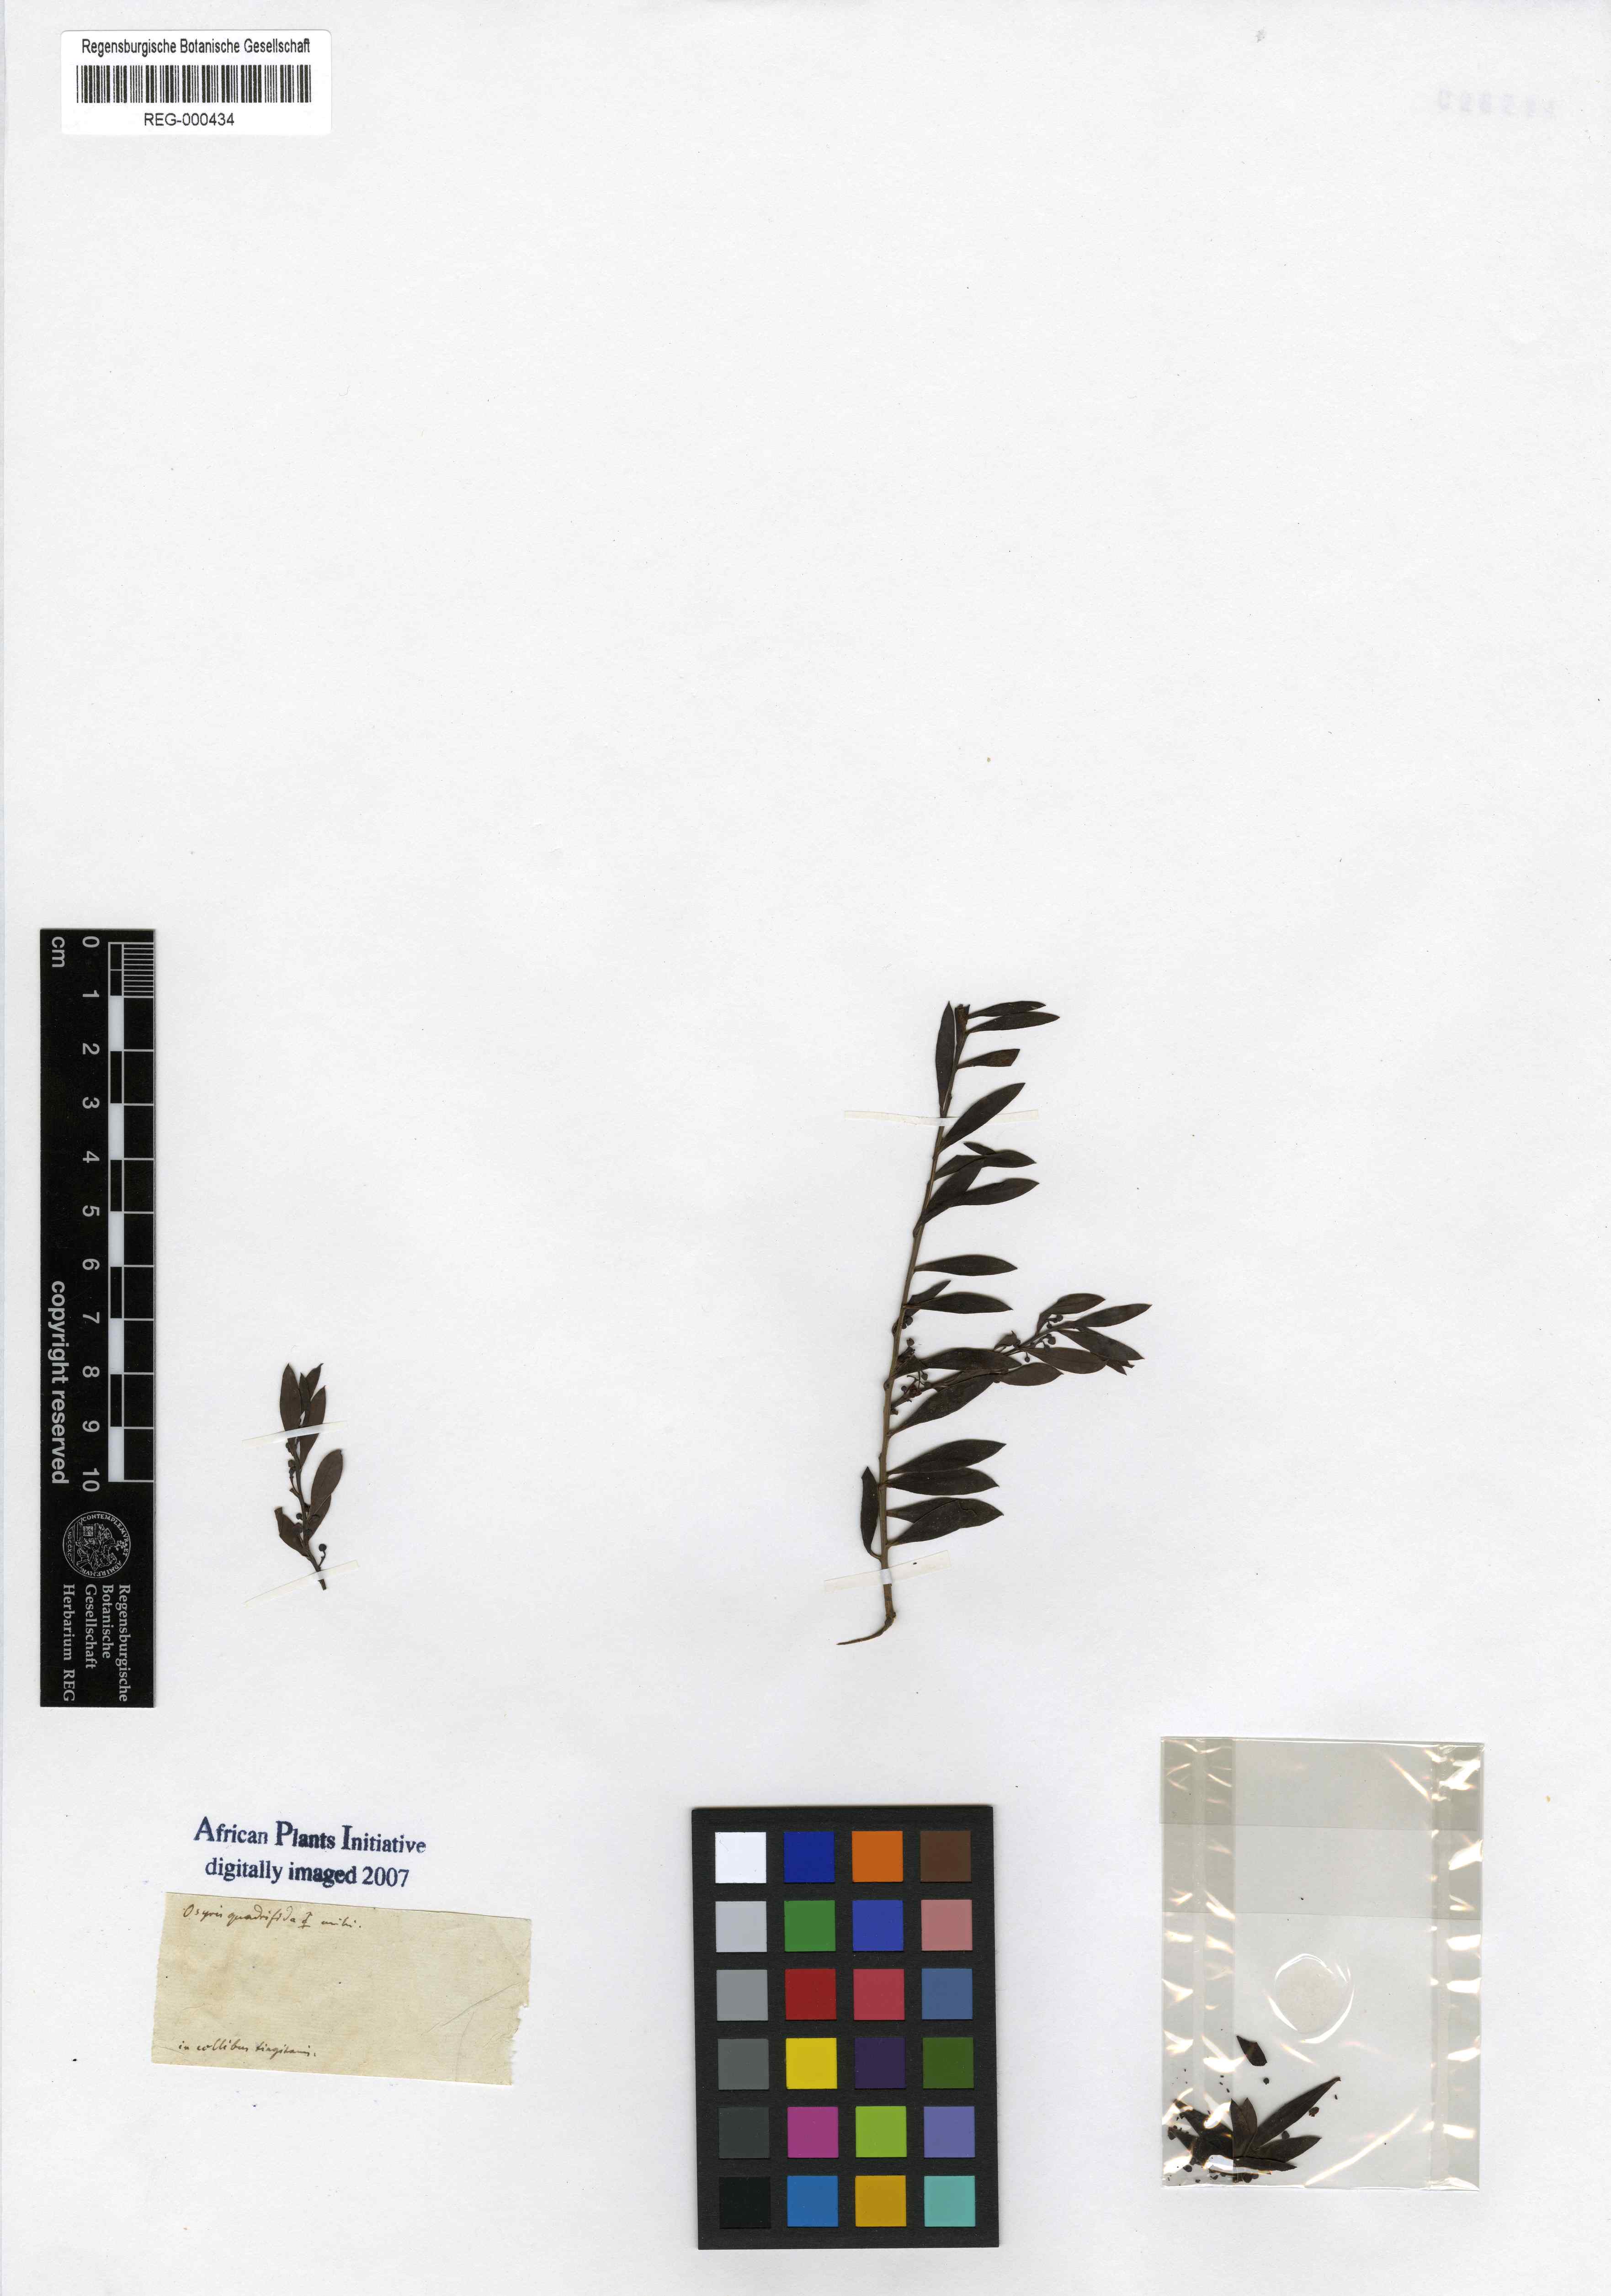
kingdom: Plantae
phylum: Tracheophyta
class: Magnoliopsida
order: Santalales
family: Santalaceae
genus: Osyris
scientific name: Osyris quadripartita
